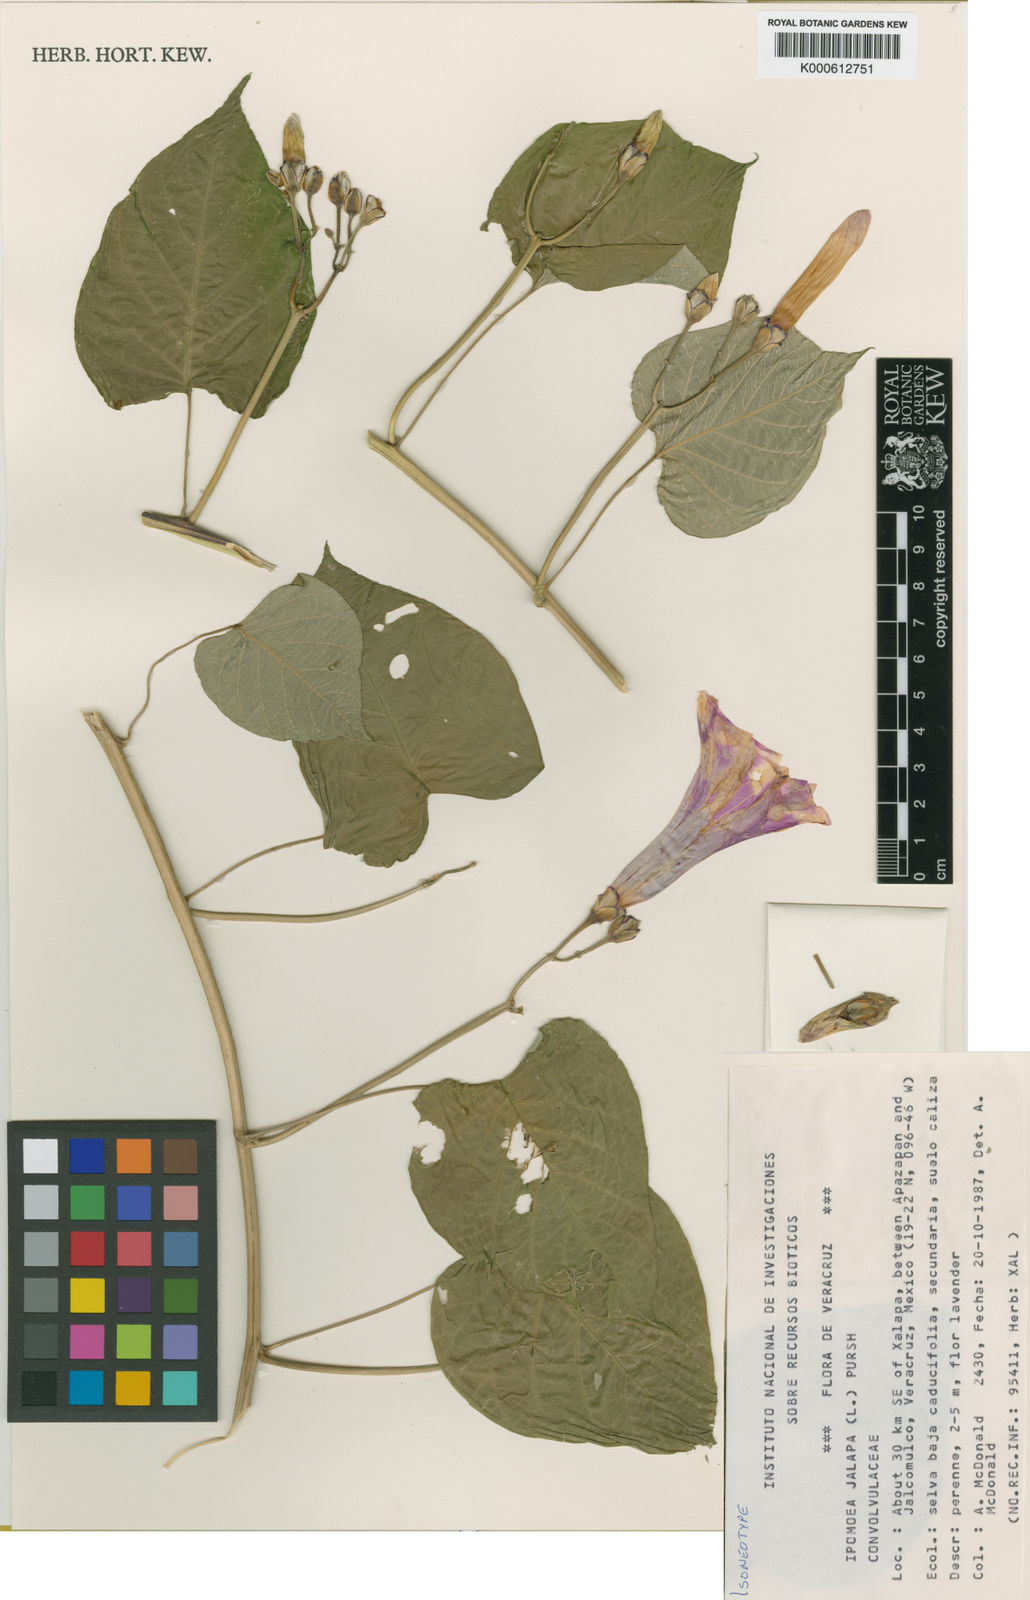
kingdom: Plantae
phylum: Tracheophyta
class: Magnoliopsida
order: Solanales
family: Convolvulaceae
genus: Ipomoea
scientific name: Ipomoea jalapa
